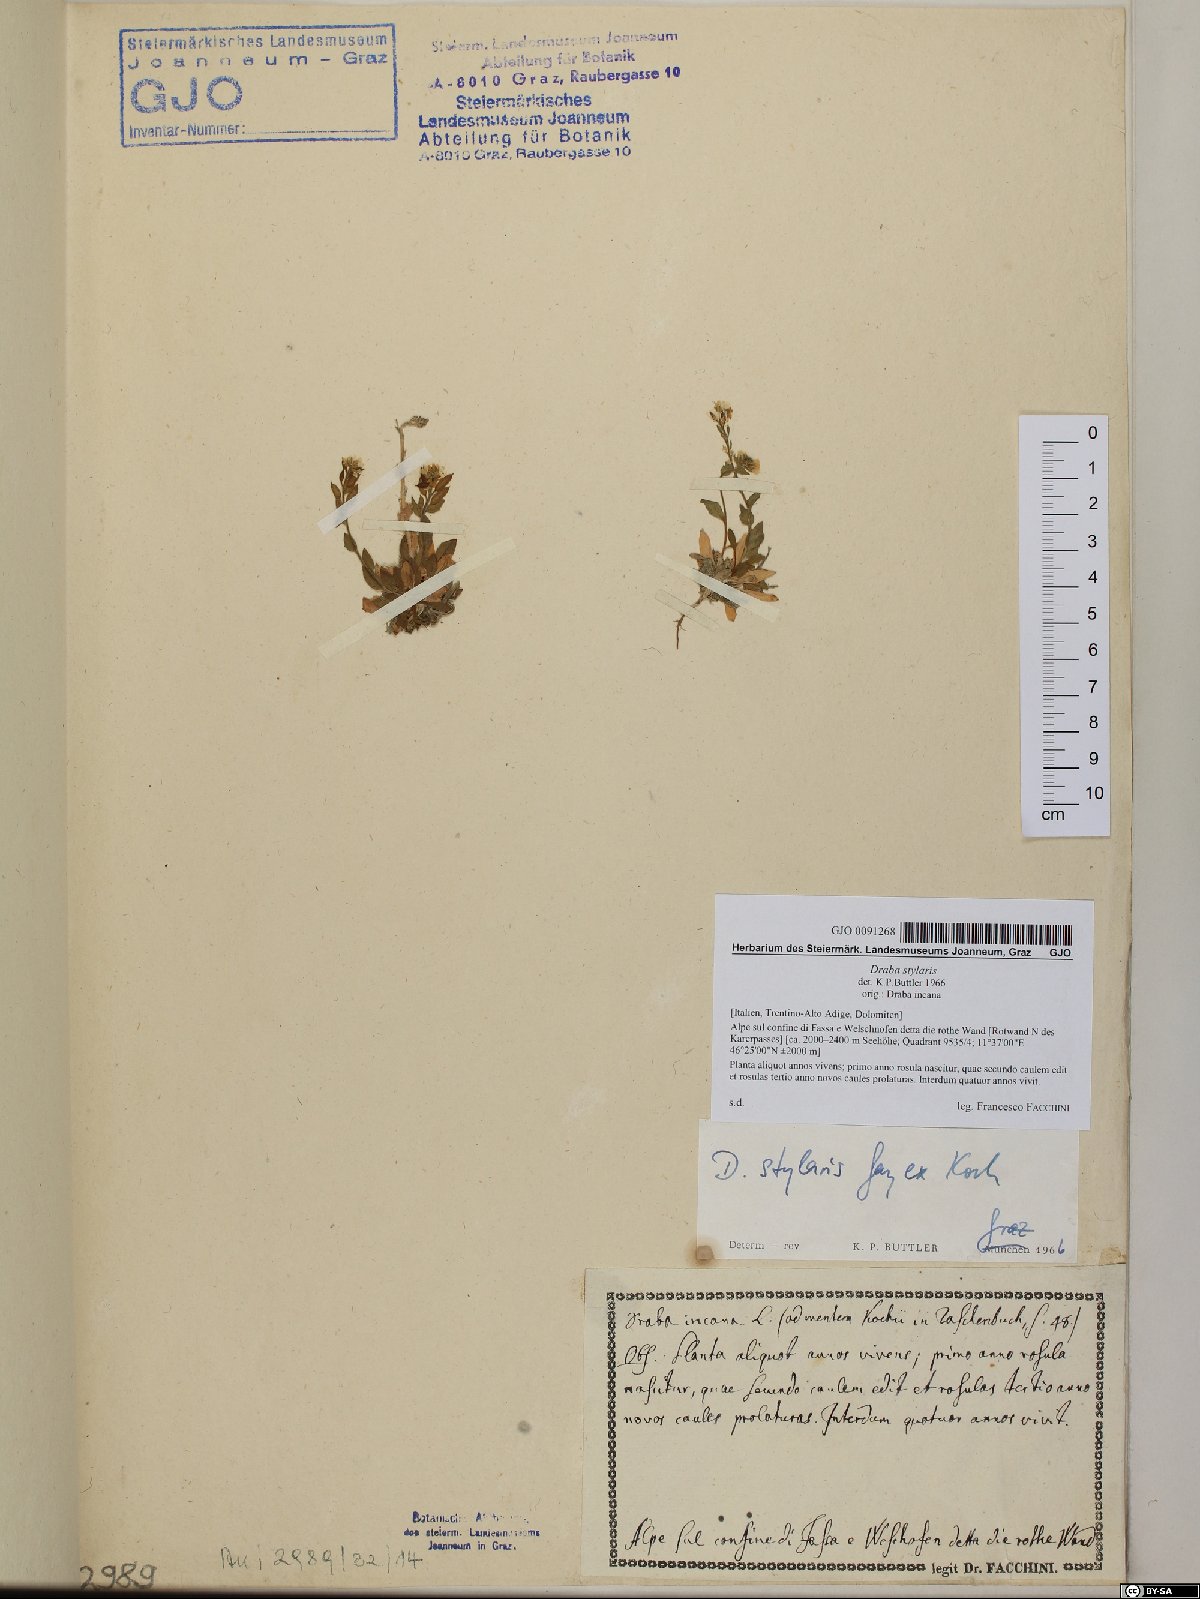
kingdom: Plantae
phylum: Tracheophyta
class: Magnoliopsida
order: Brassicales
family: Brassicaceae
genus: Draba
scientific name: Draba thomasii
